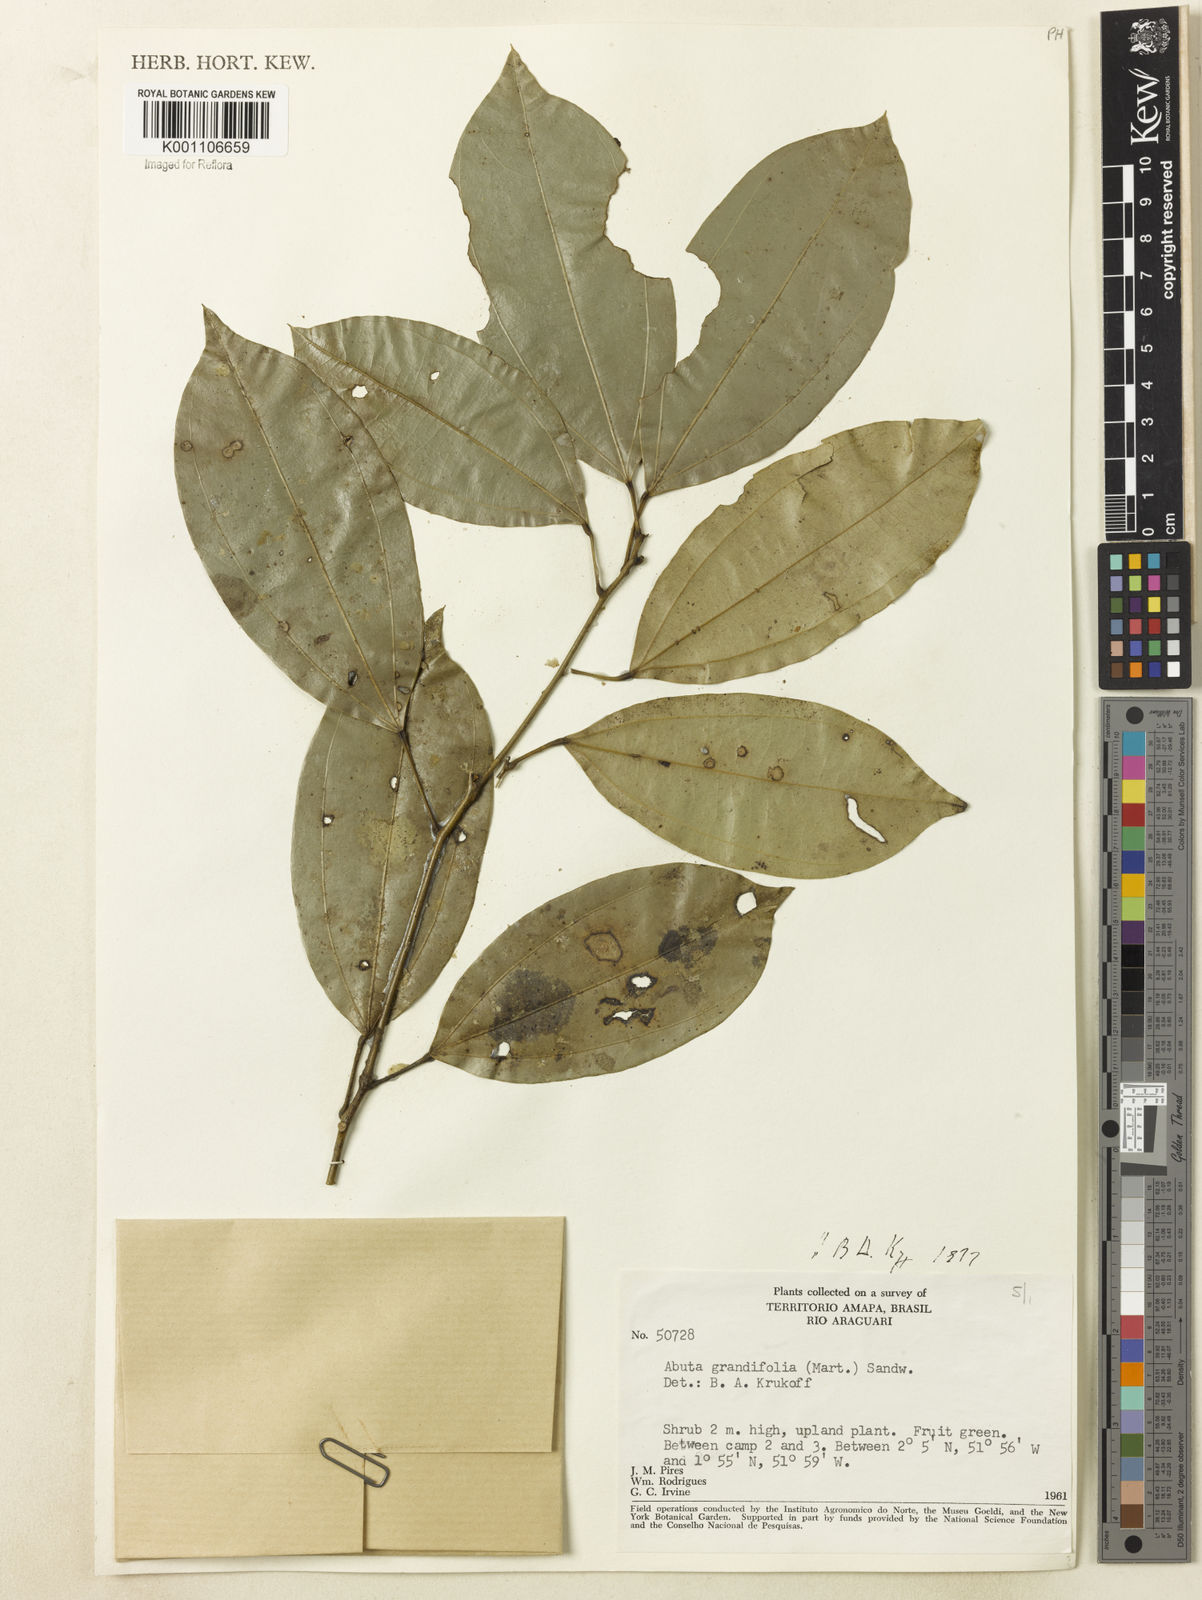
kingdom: Plantae
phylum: Tracheophyta
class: Magnoliopsida
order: Ranunculales
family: Menispermaceae
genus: Abuta
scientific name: Abuta grandifolia
